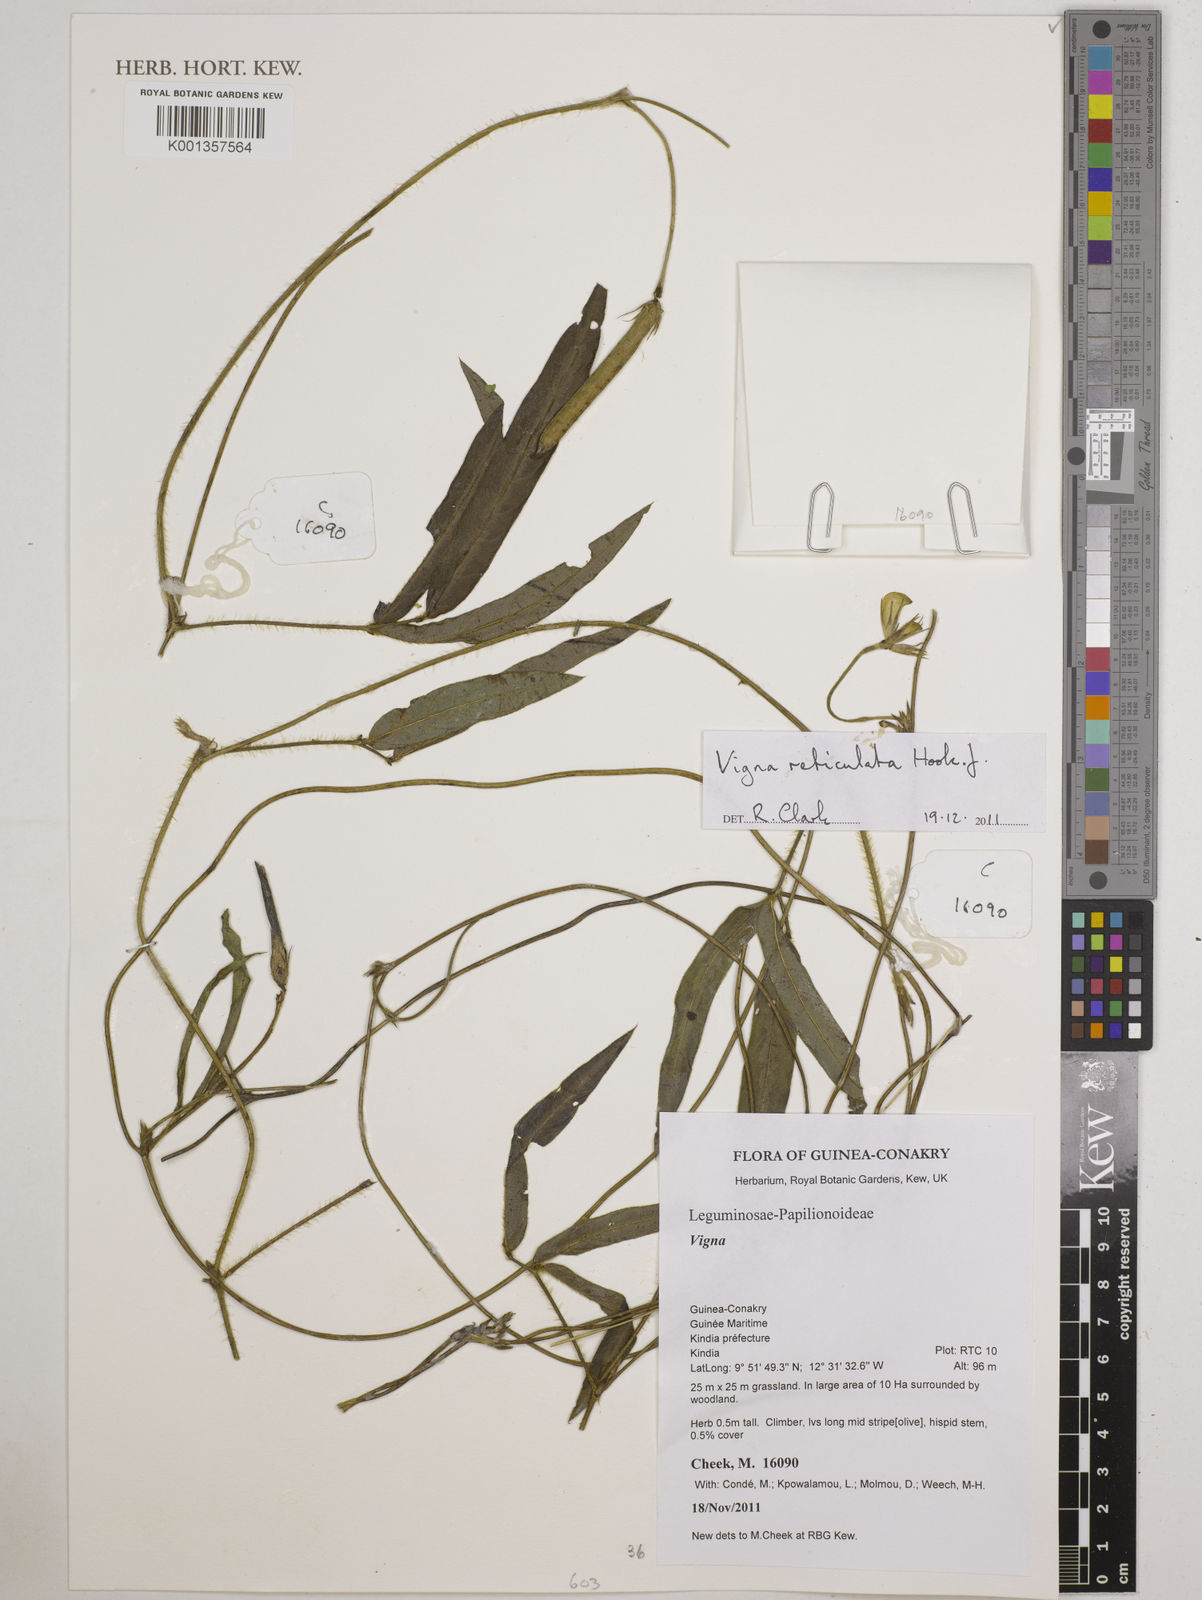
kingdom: Plantae
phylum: Tracheophyta
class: Magnoliopsida
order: Fabales
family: Fabaceae
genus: Vigna
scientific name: Vigna reticulata
